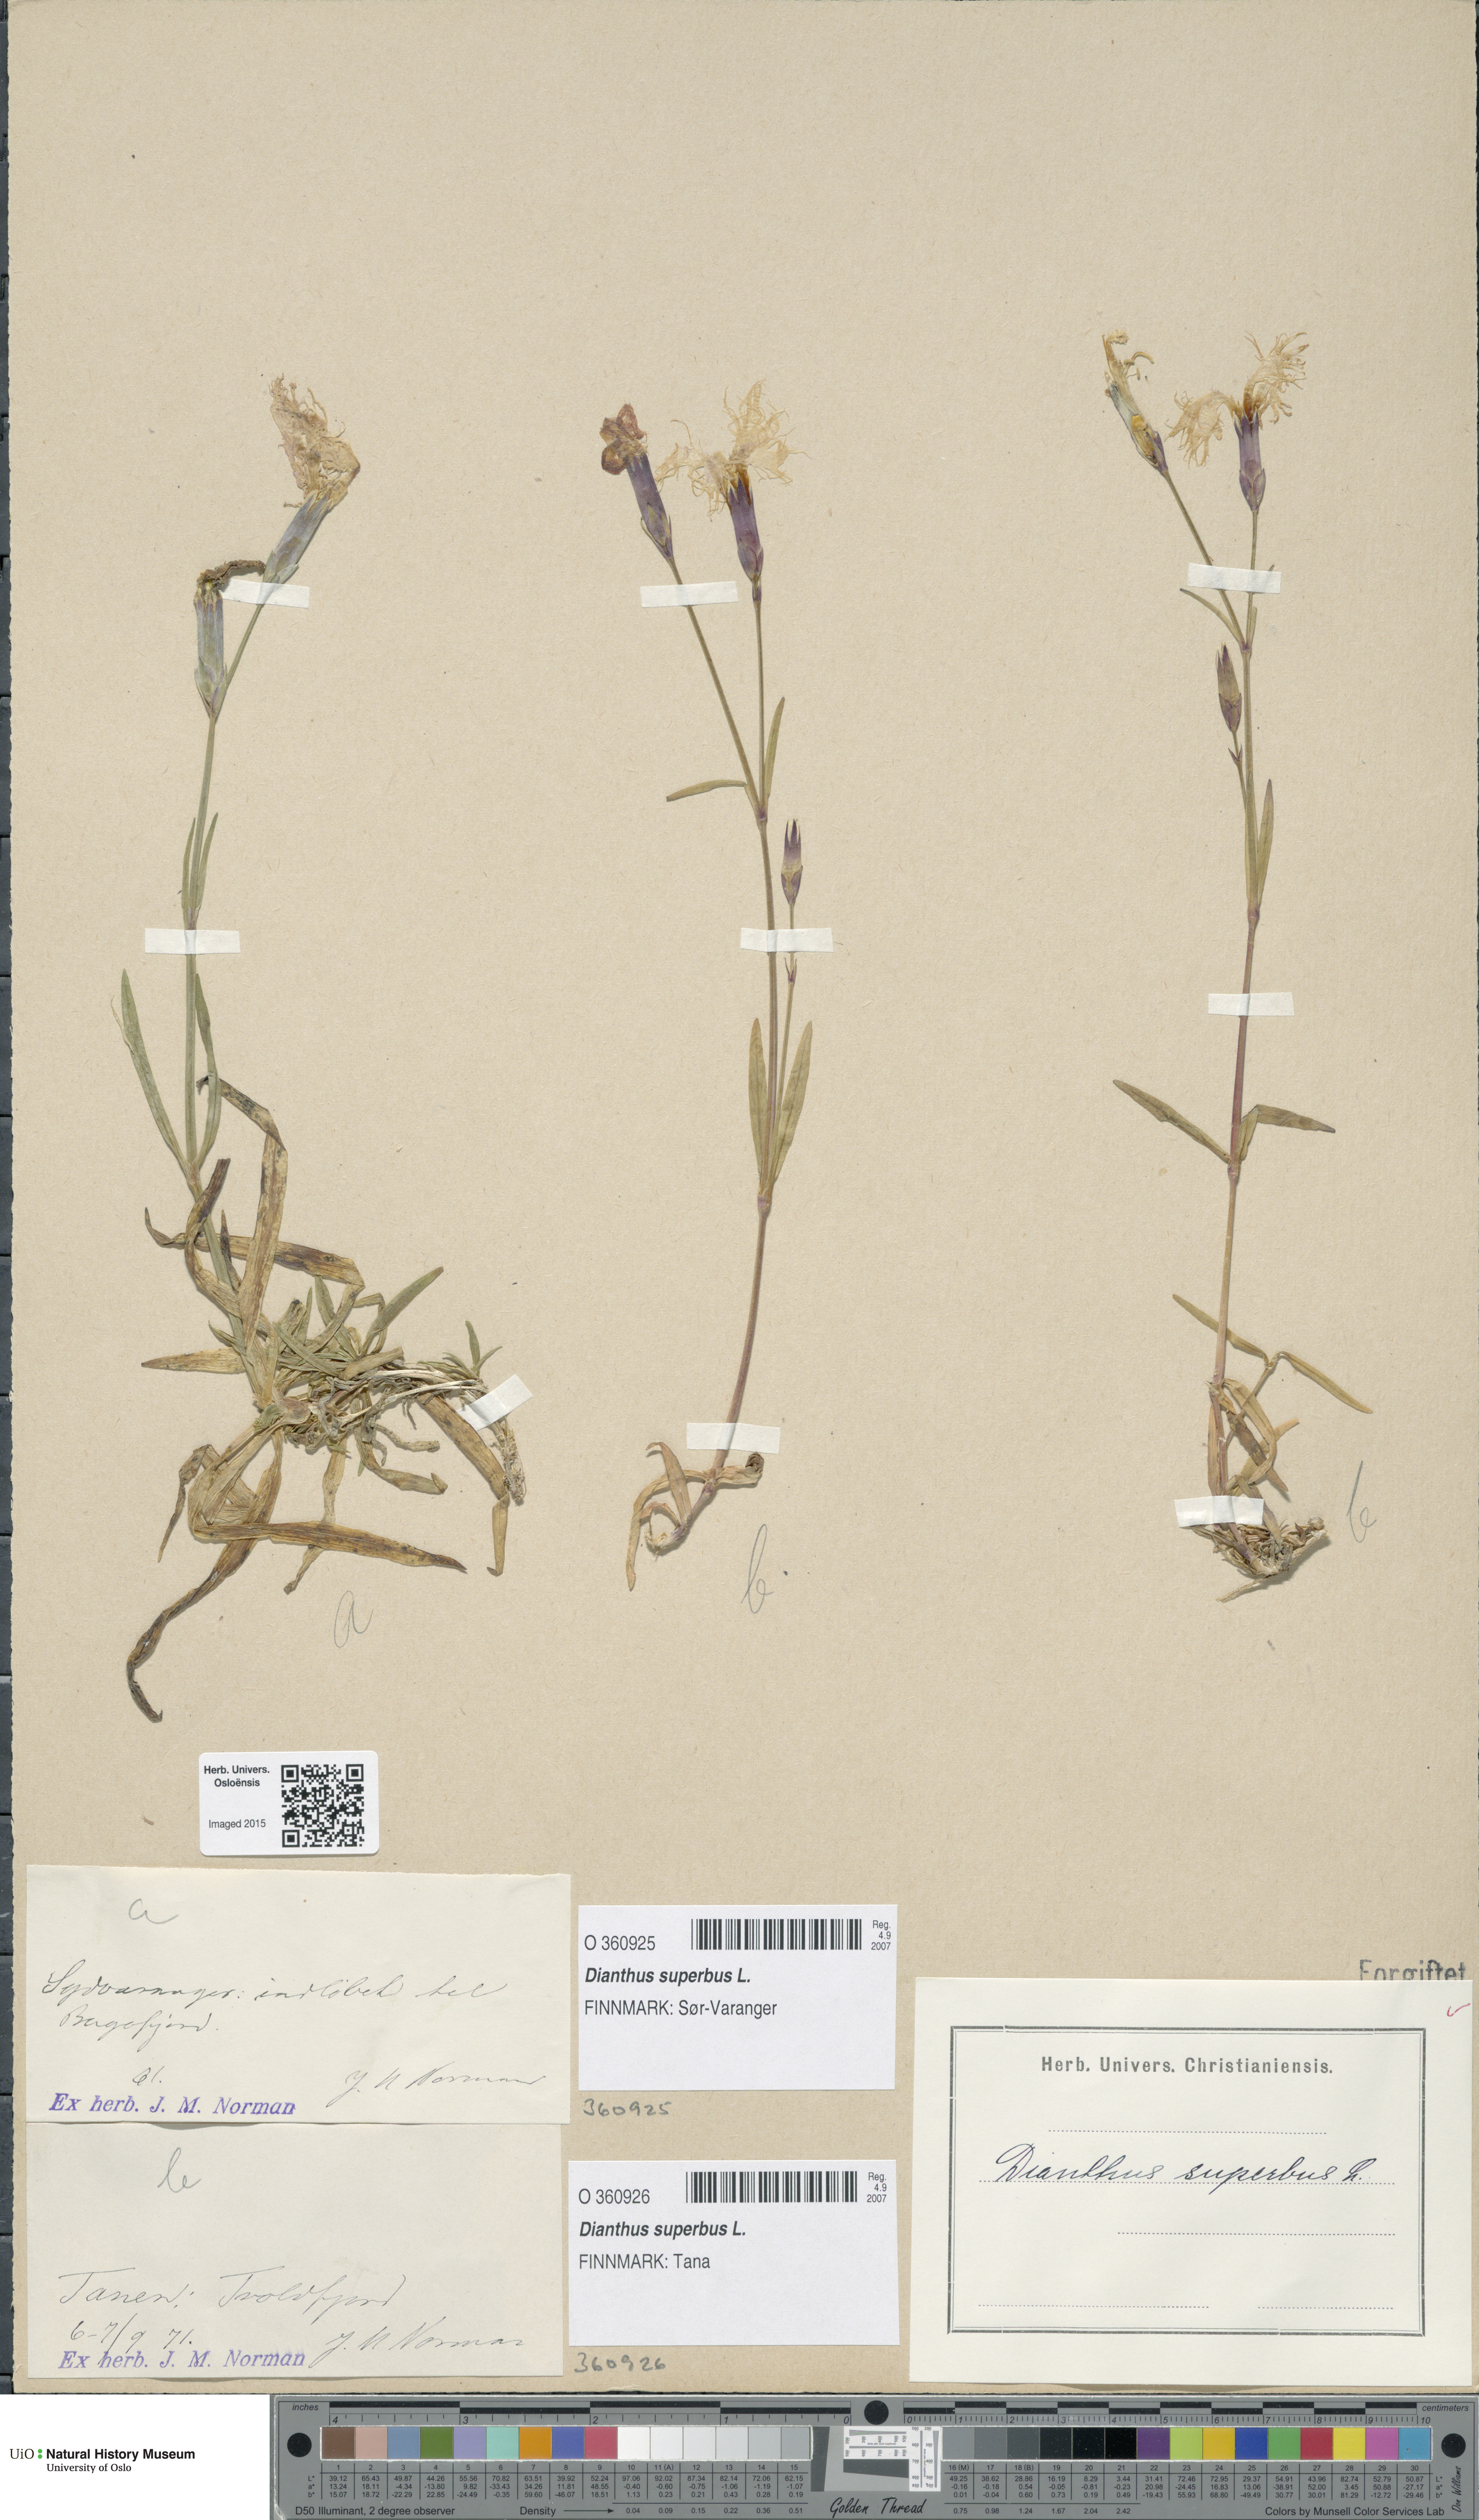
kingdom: Plantae
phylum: Tracheophyta
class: Magnoliopsida
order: Caryophyllales
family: Caryophyllaceae
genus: Dianthus
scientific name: Dianthus superbus
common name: Fringed pink
